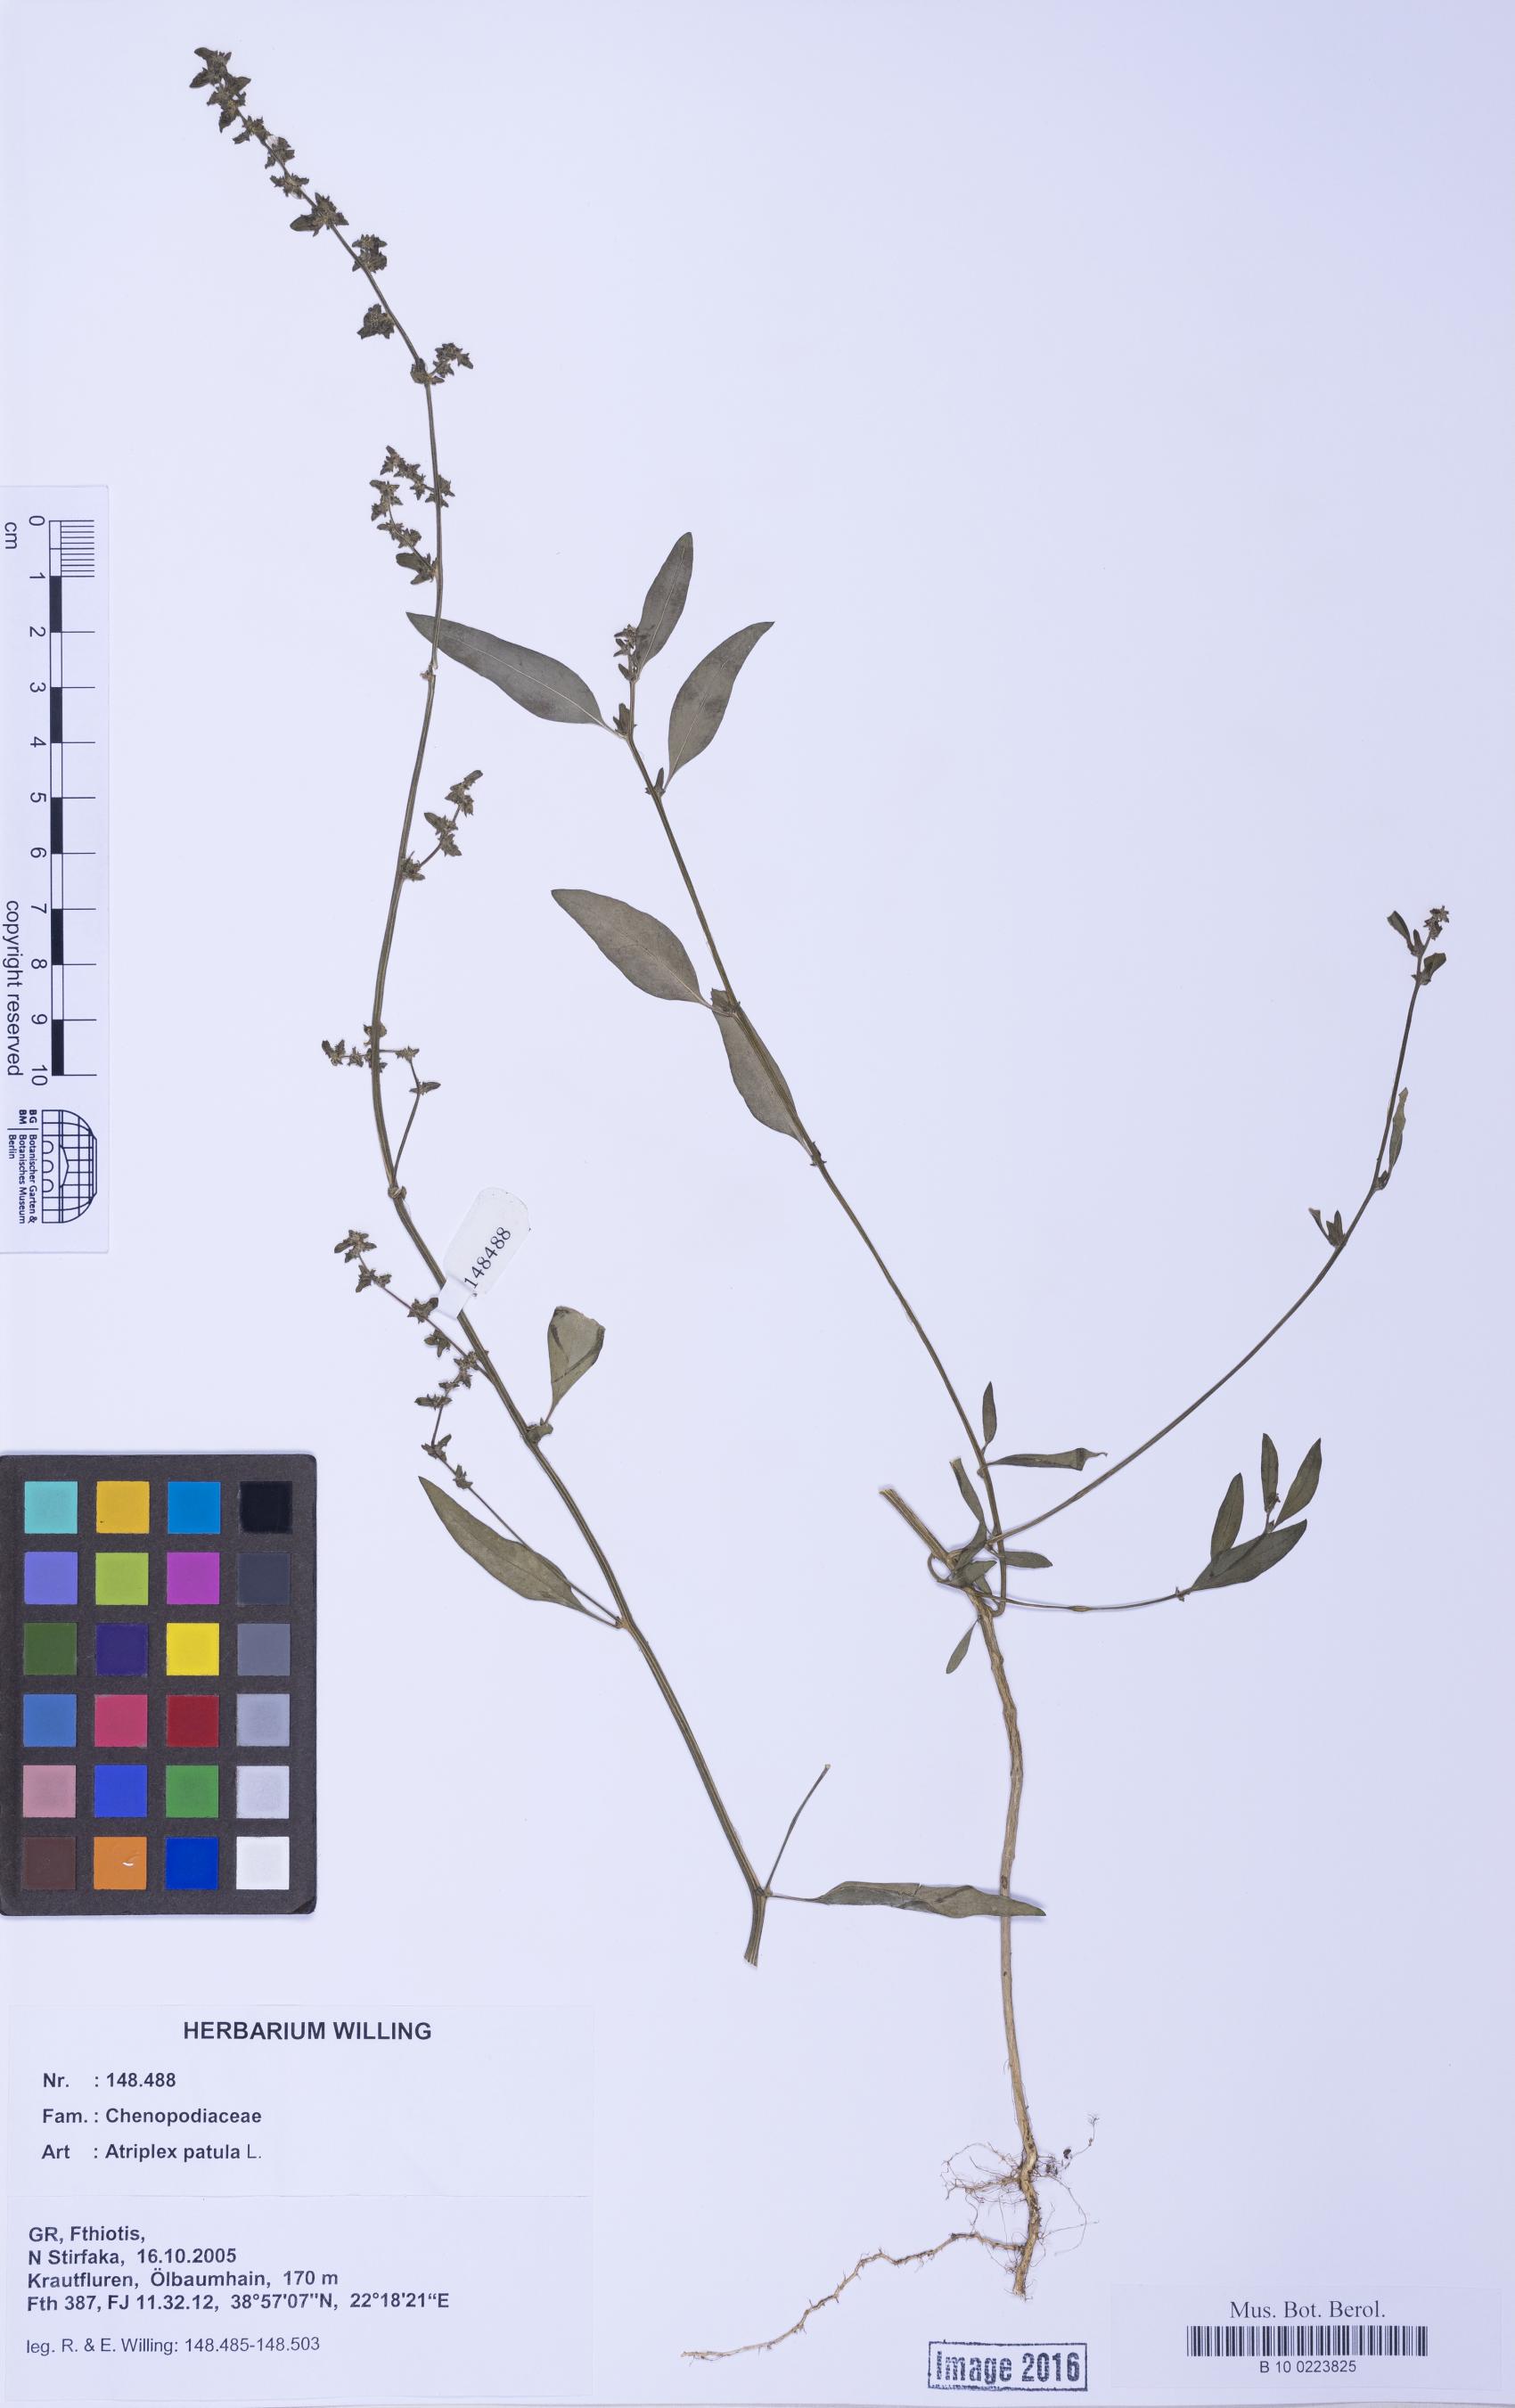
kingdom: Plantae
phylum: Tracheophyta
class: Magnoliopsida
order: Caryophyllales
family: Amaranthaceae
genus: Atriplex
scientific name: Atriplex patula
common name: Common orache
